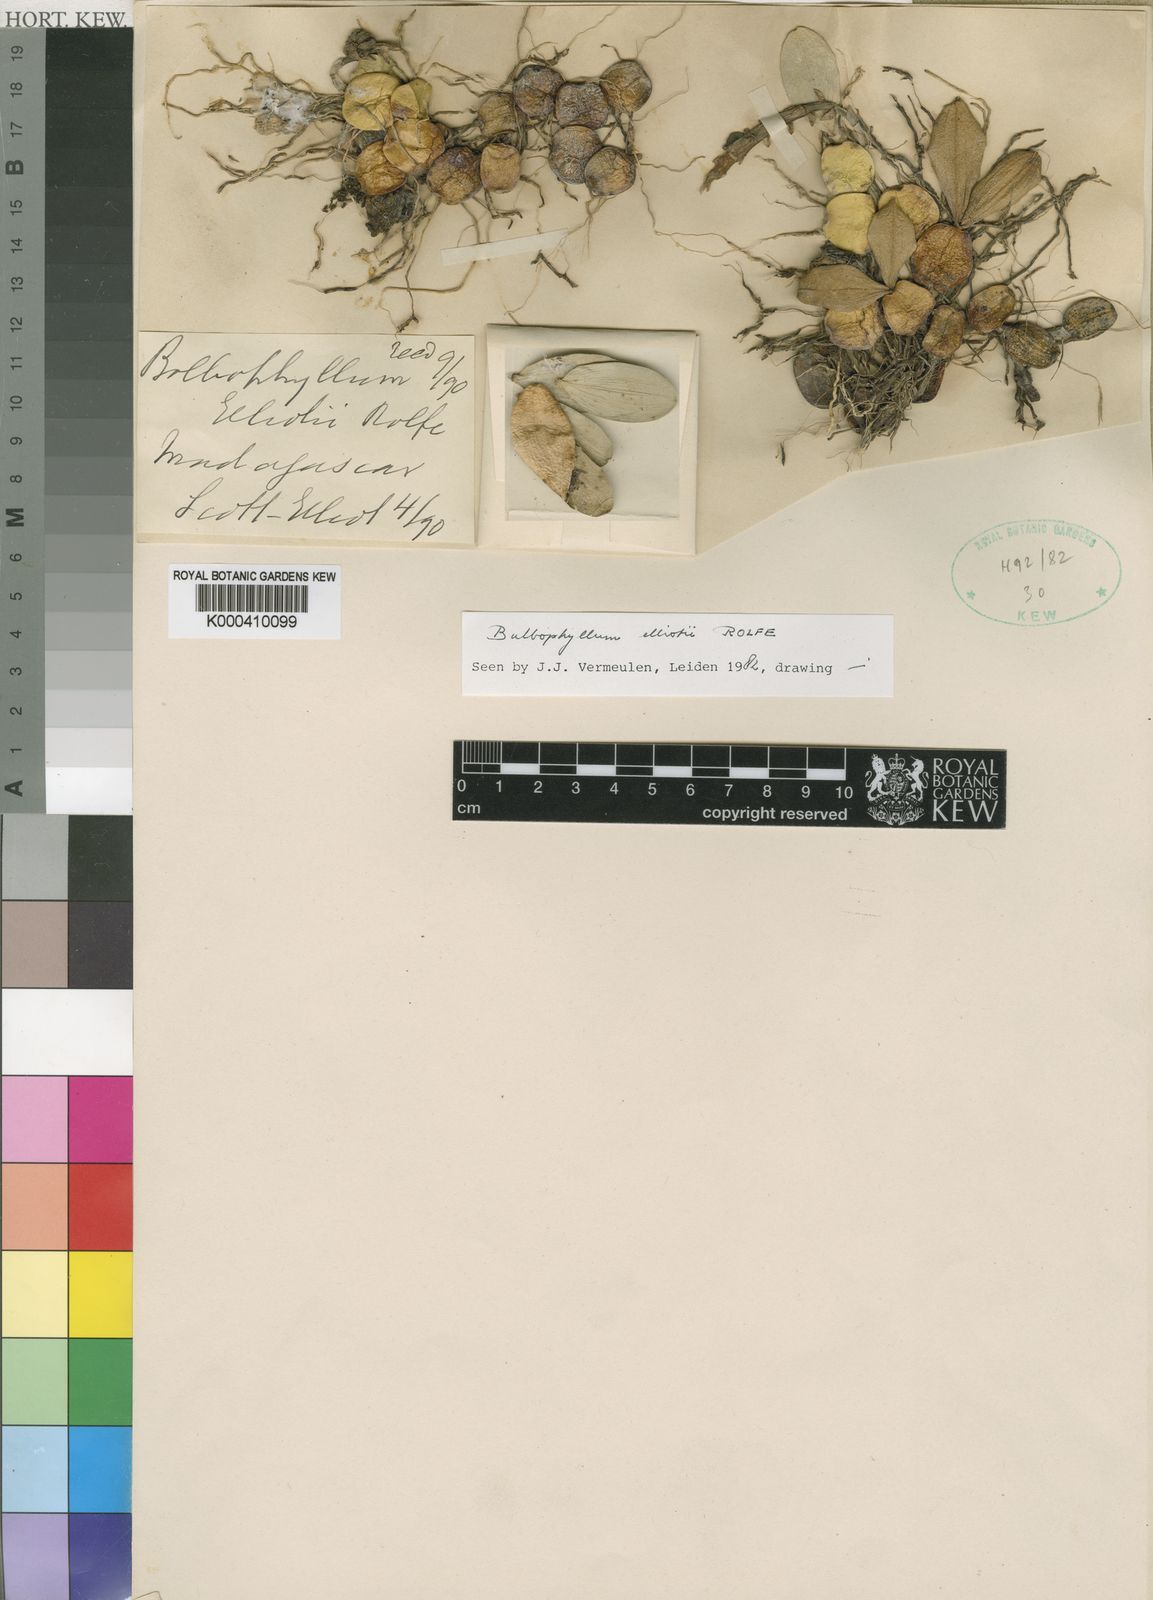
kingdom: Plantae
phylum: Tracheophyta
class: Liliopsida
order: Asparagales
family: Orchidaceae
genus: Bulbophyllum
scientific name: Bulbophyllum elliotii
